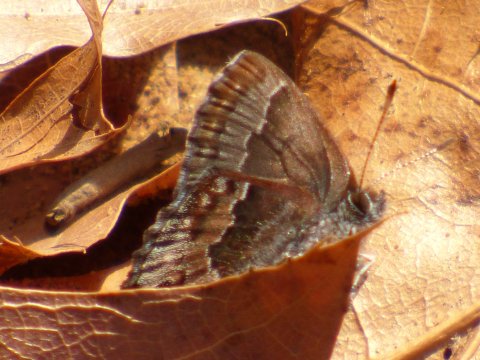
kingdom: Animalia
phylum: Arthropoda
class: Insecta
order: Lepidoptera
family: Lycaenidae
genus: Thecla
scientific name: Thecla irus
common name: Frosted Elfin
